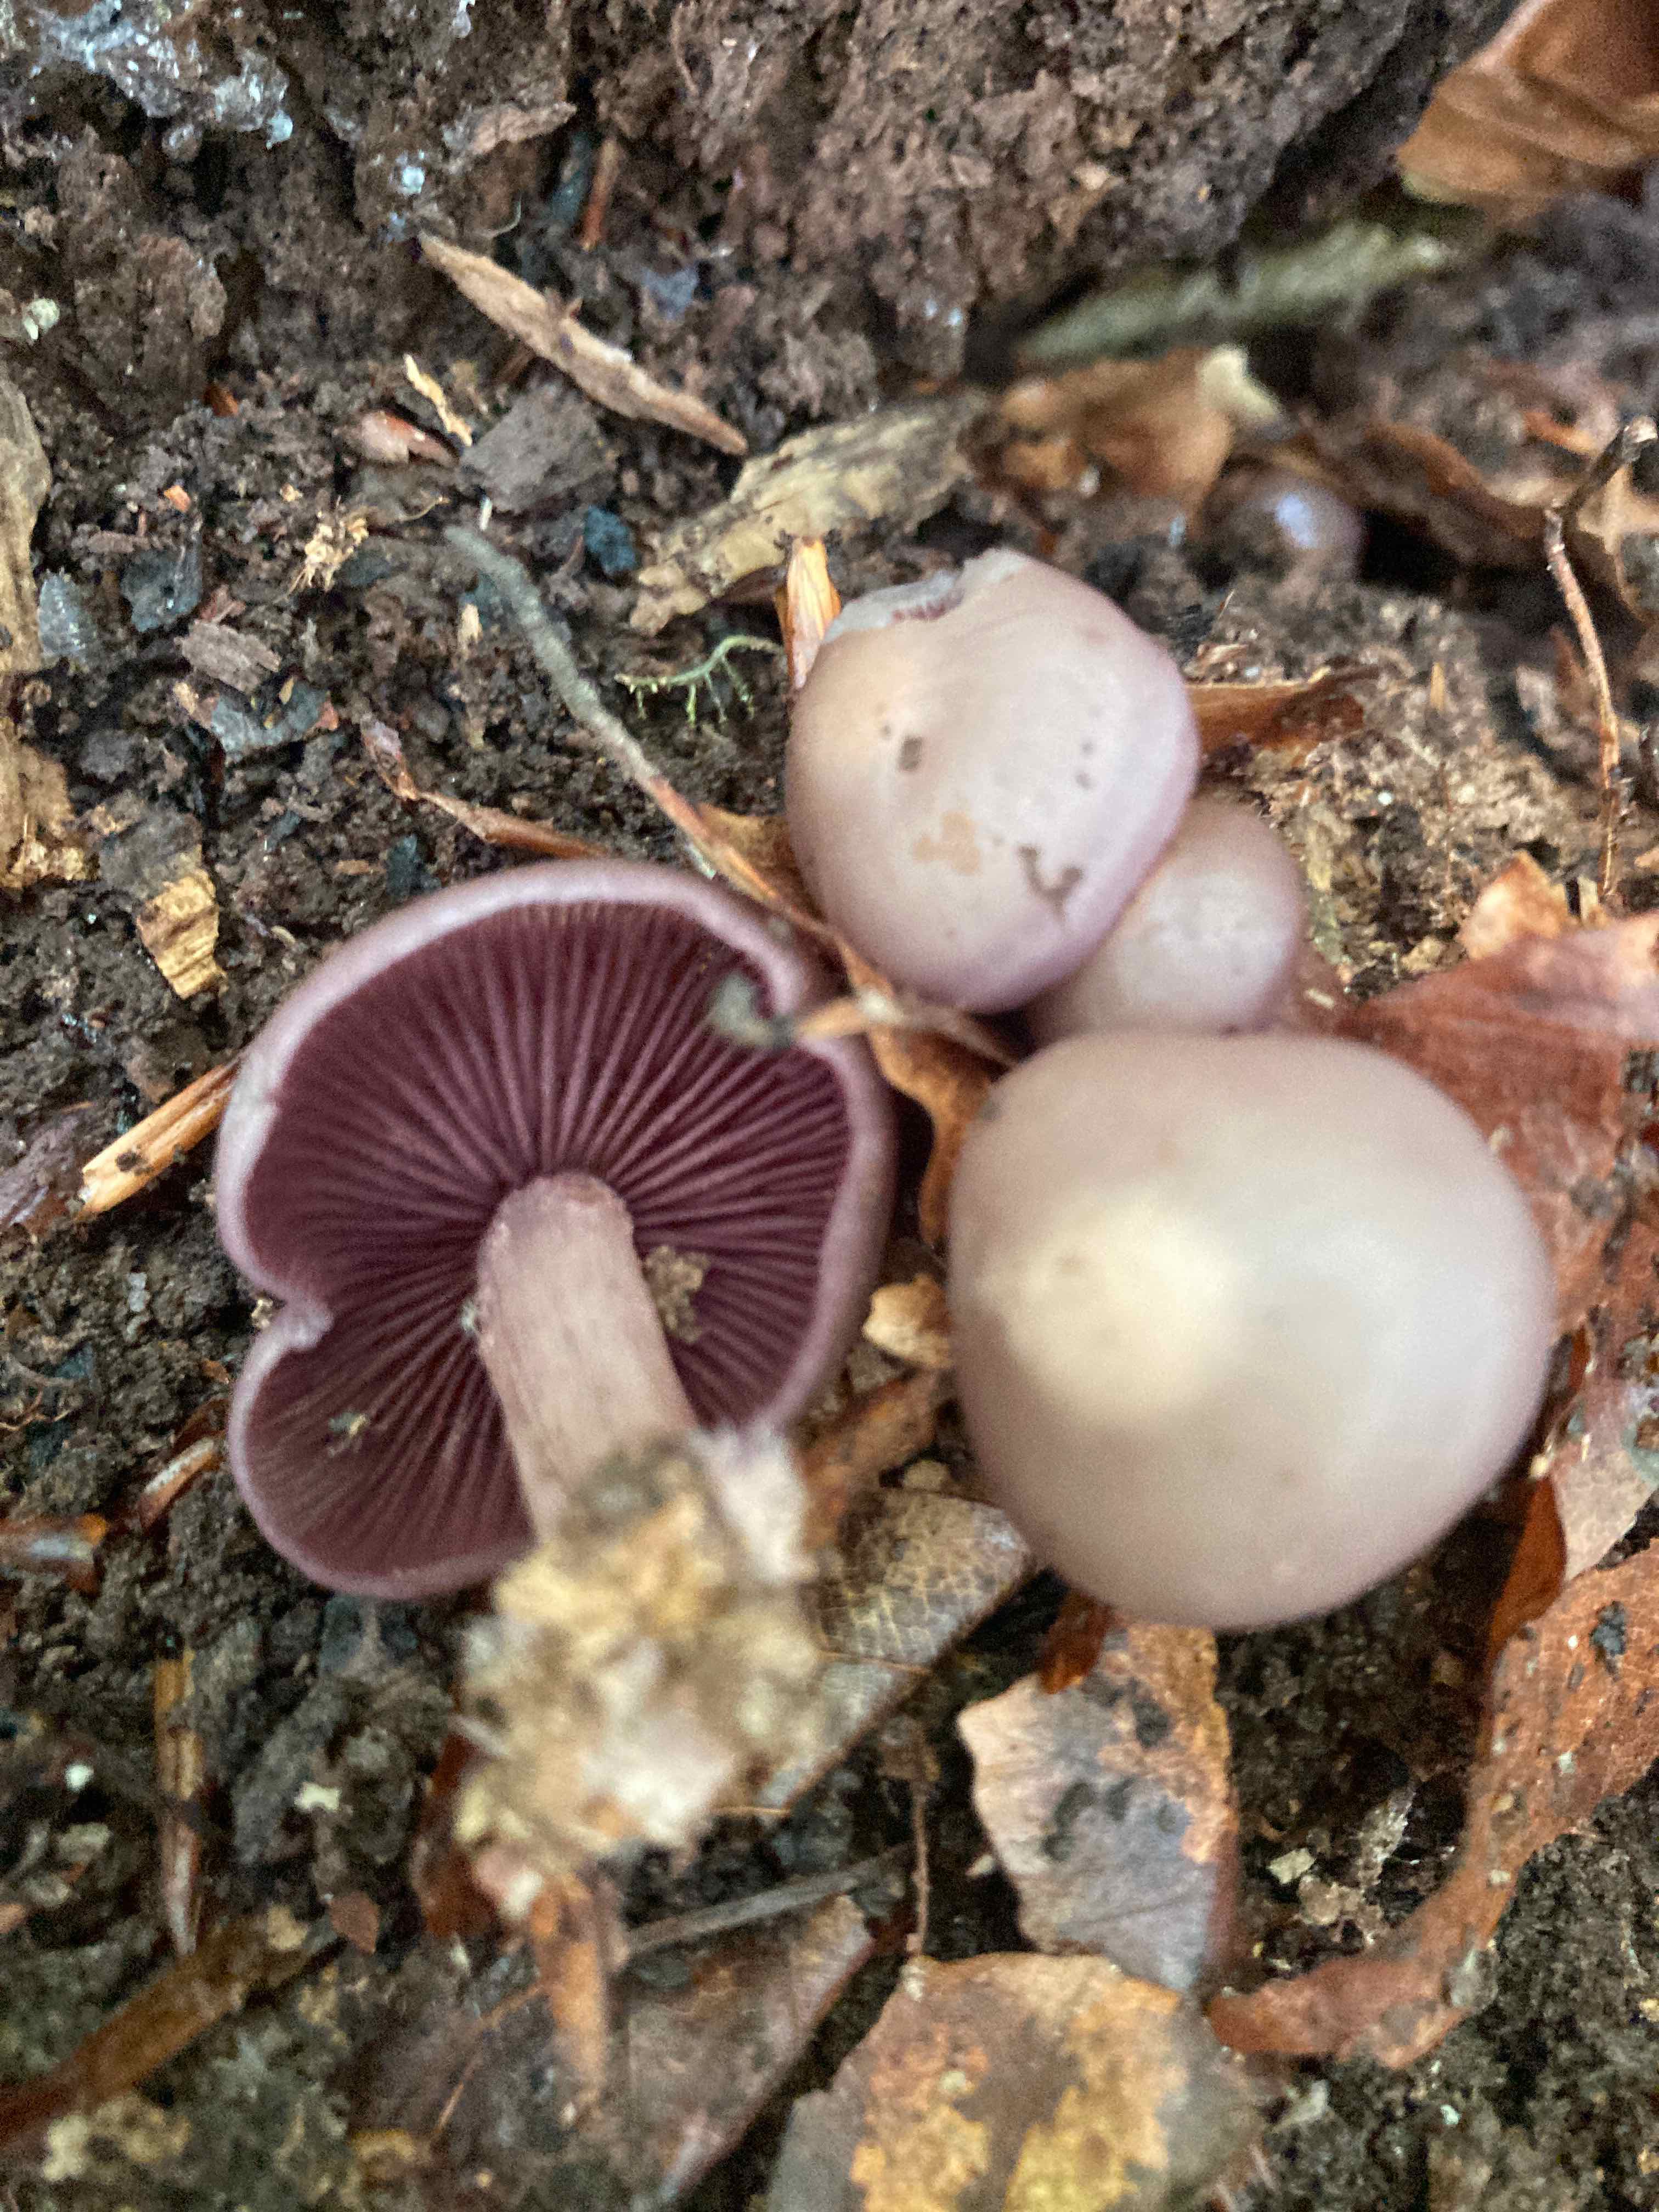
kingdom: Fungi
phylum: Basidiomycota
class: Agaricomycetes
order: Agaricales
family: Mycenaceae
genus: Mycena
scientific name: Mycena pelianthina
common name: mørkbladet huesvamp
